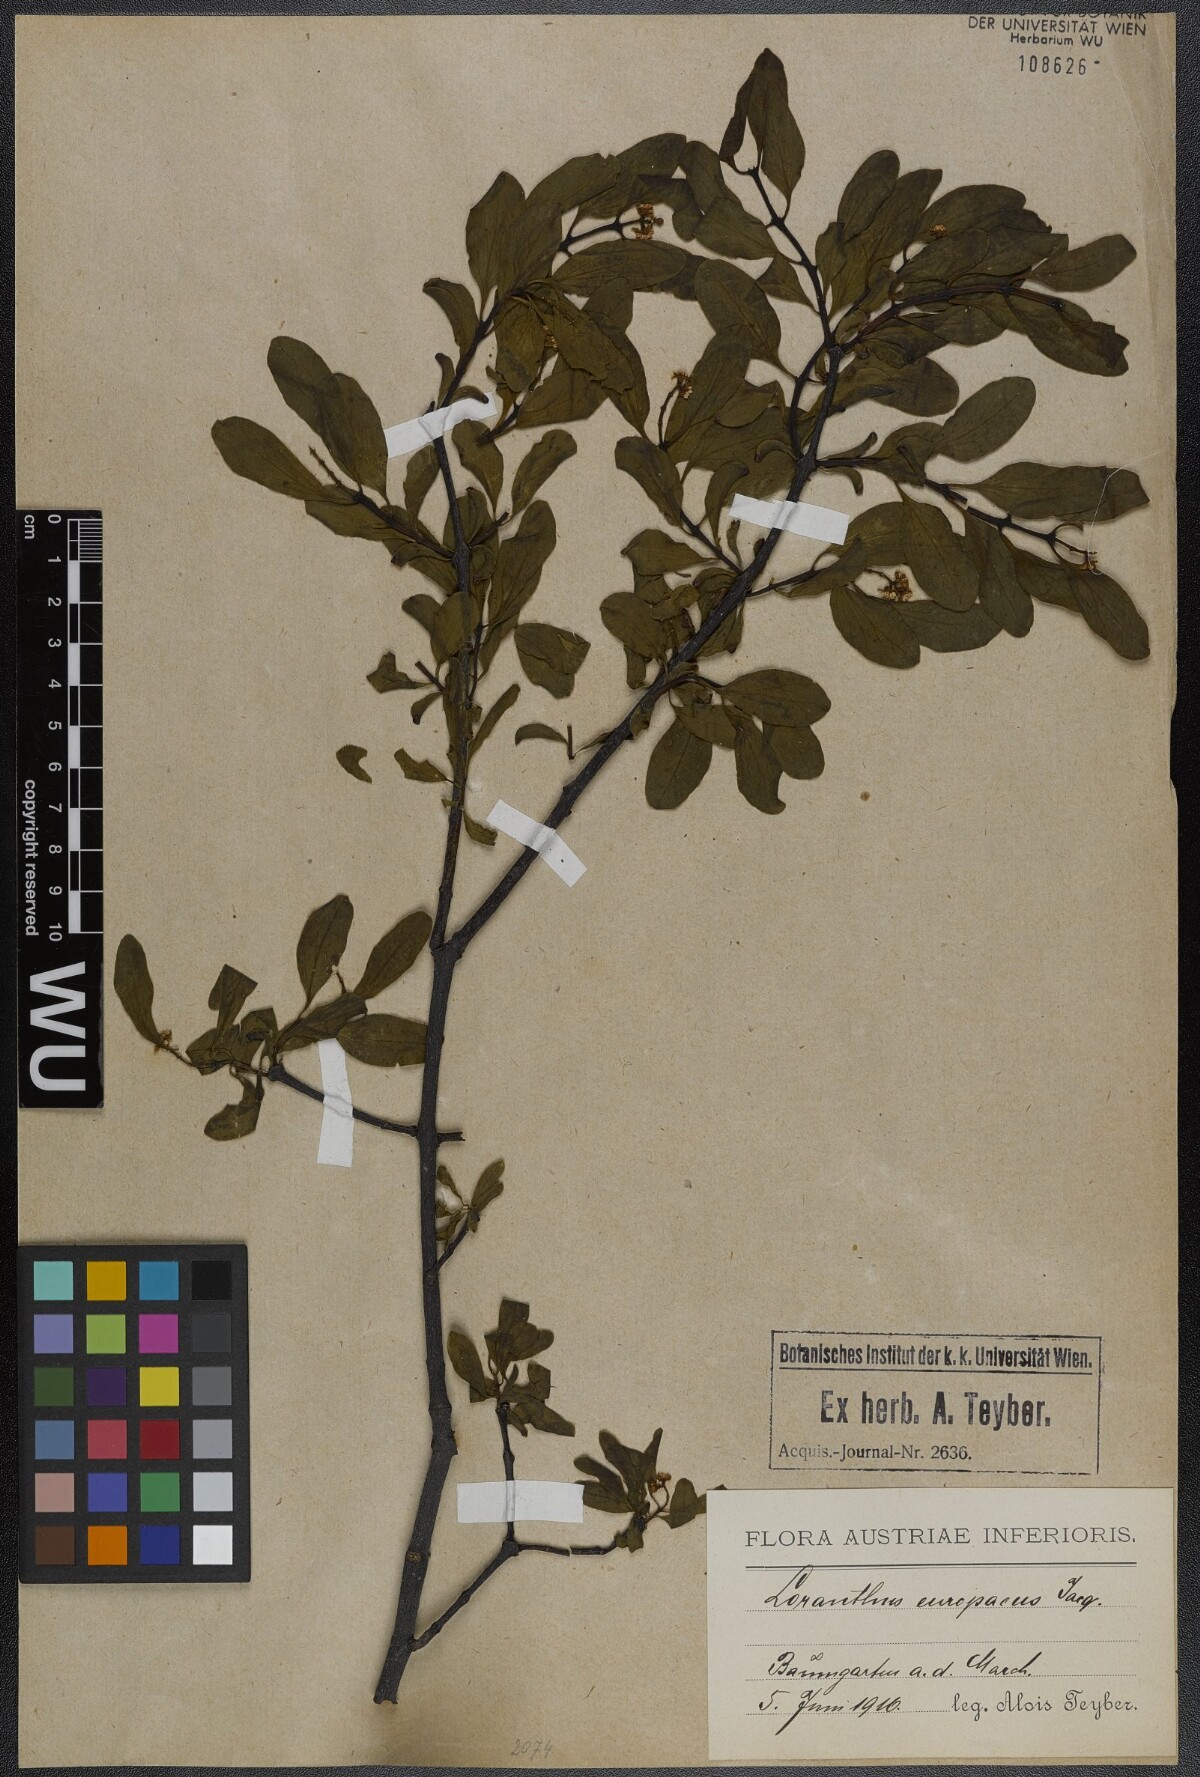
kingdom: Plantae
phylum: Tracheophyta
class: Magnoliopsida
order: Santalales
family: Loranthaceae
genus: Loranthus
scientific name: Loranthus europaeus
